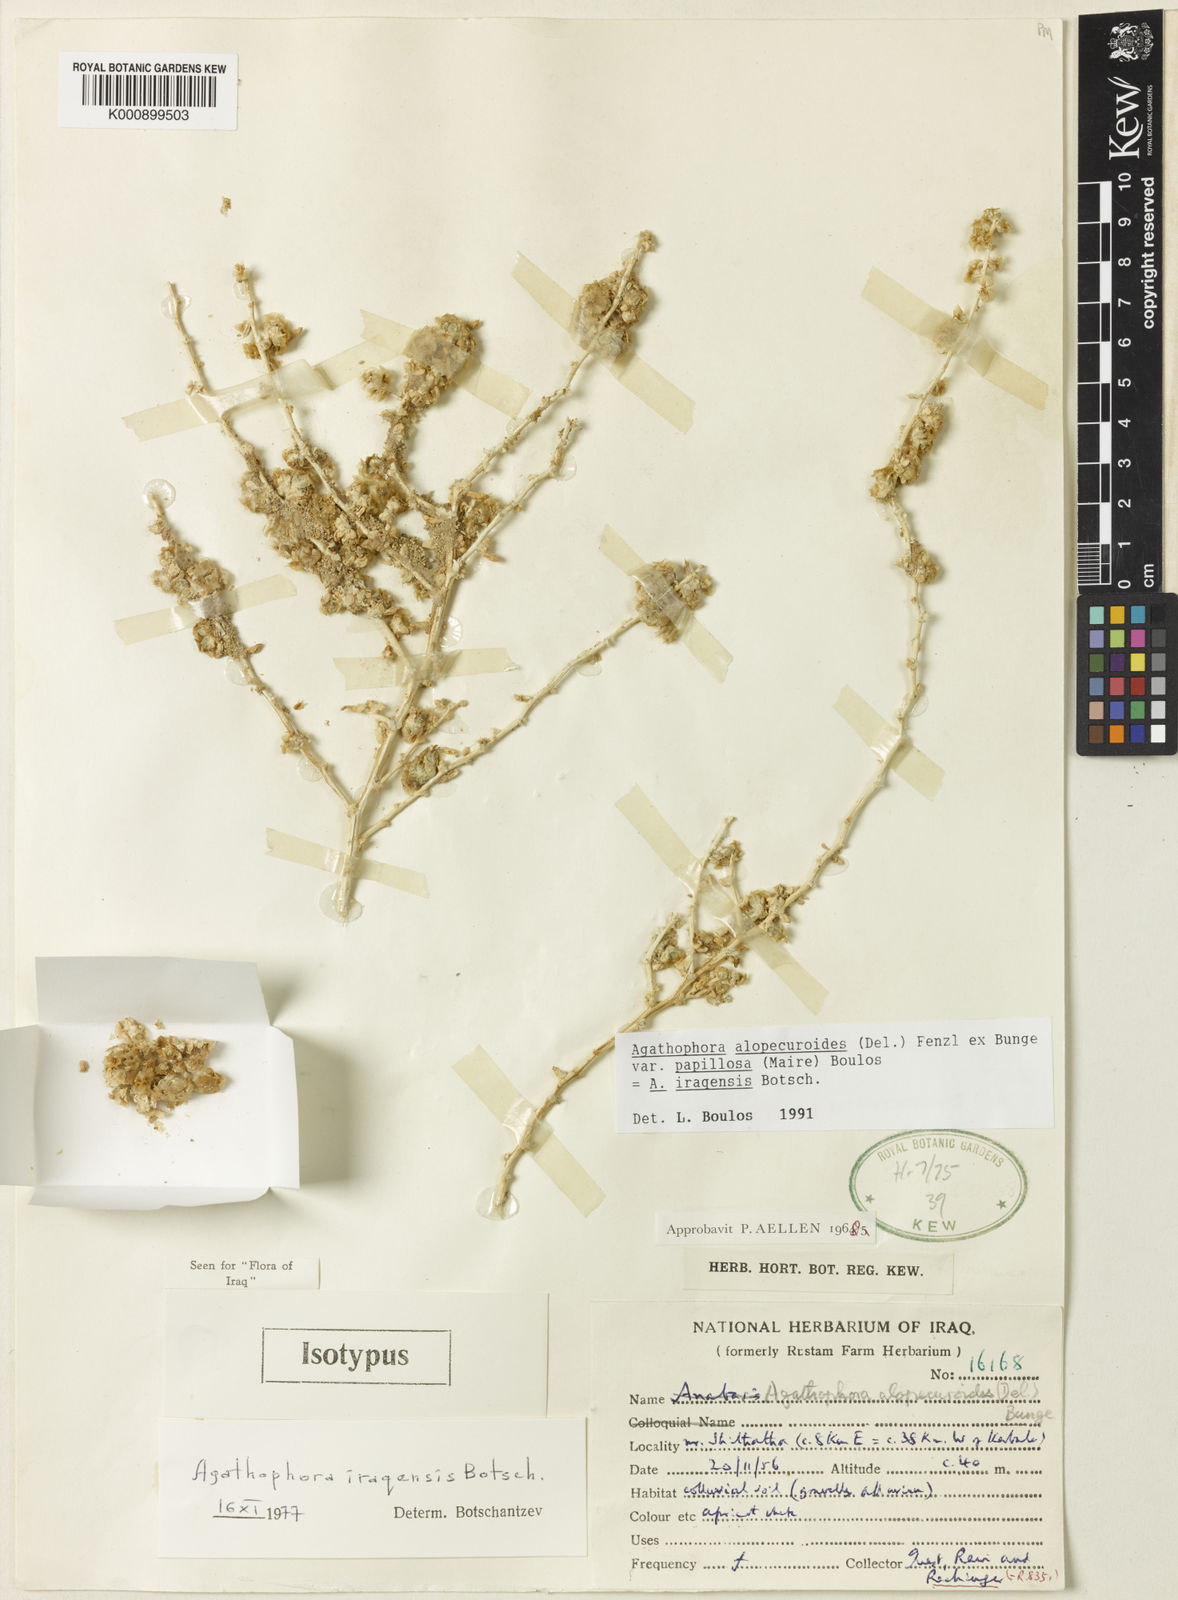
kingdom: Plantae
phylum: Tracheophyta
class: Magnoliopsida
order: Caryophyllales
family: Amaranthaceae
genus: Halogeton
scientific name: Halogeton alopecuroides
